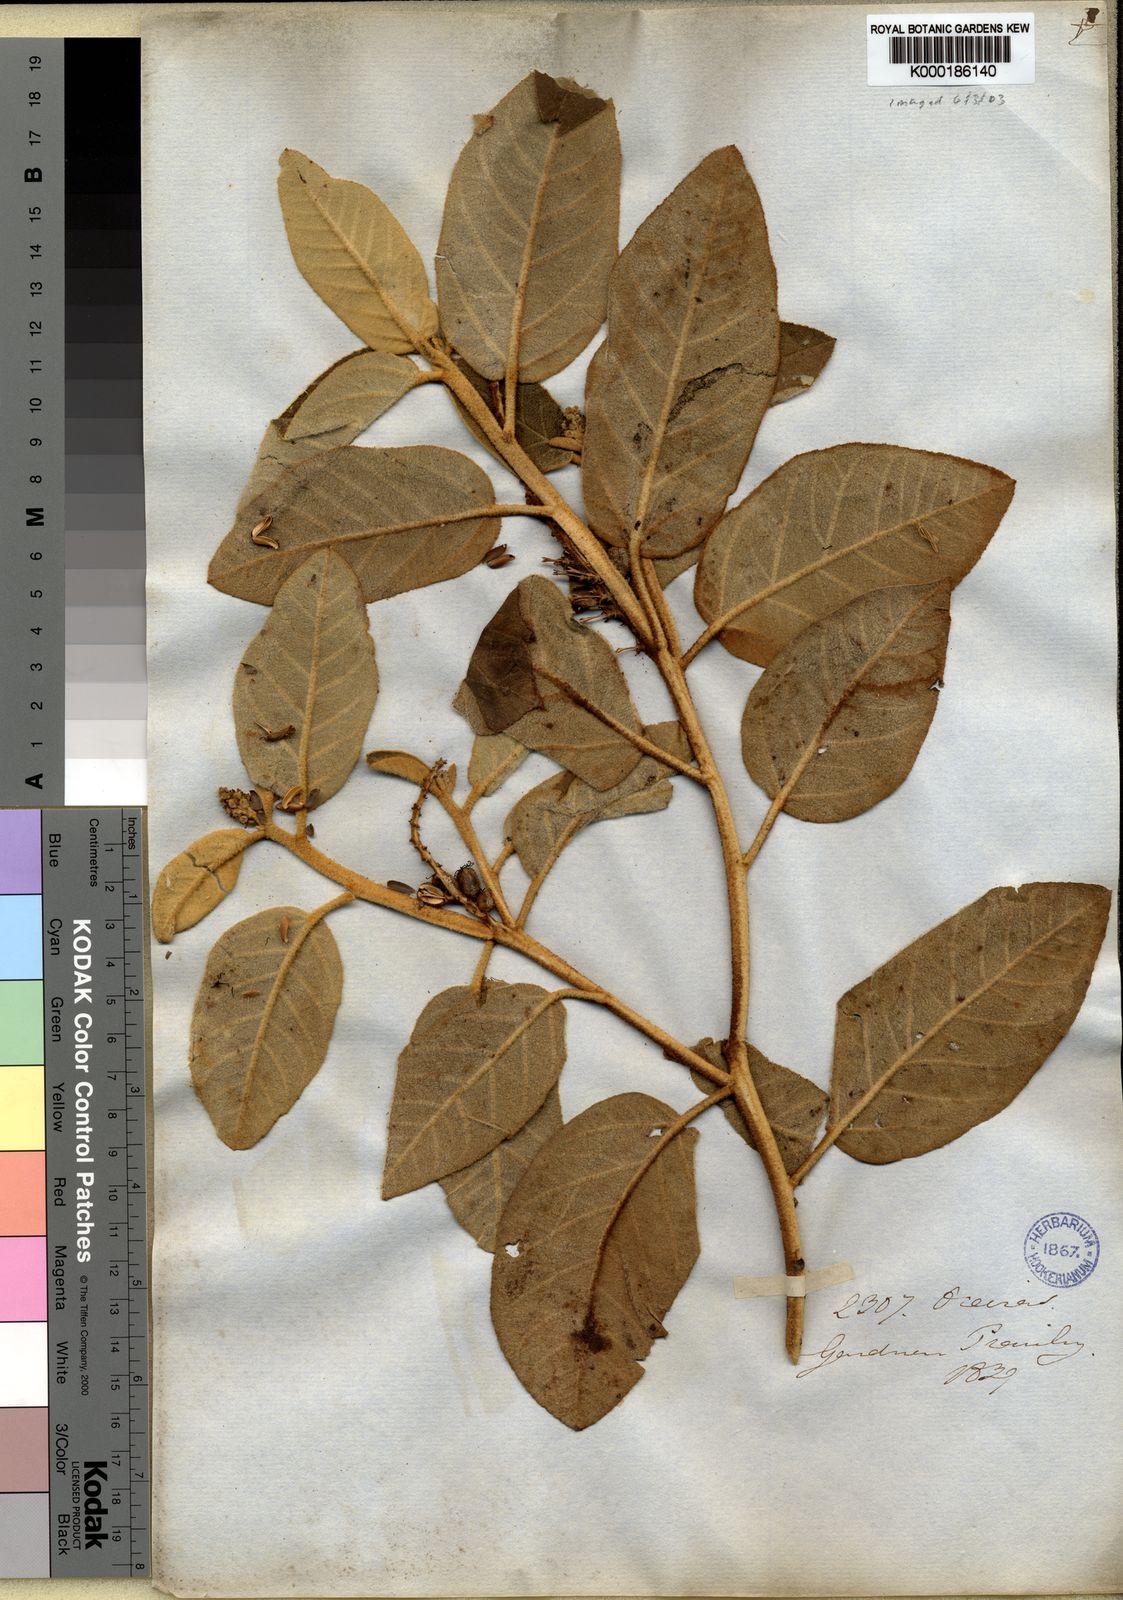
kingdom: Plantae
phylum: Tracheophyta
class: Magnoliopsida
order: Malpighiales
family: Euphorbiaceae
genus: Croton
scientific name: Croton
